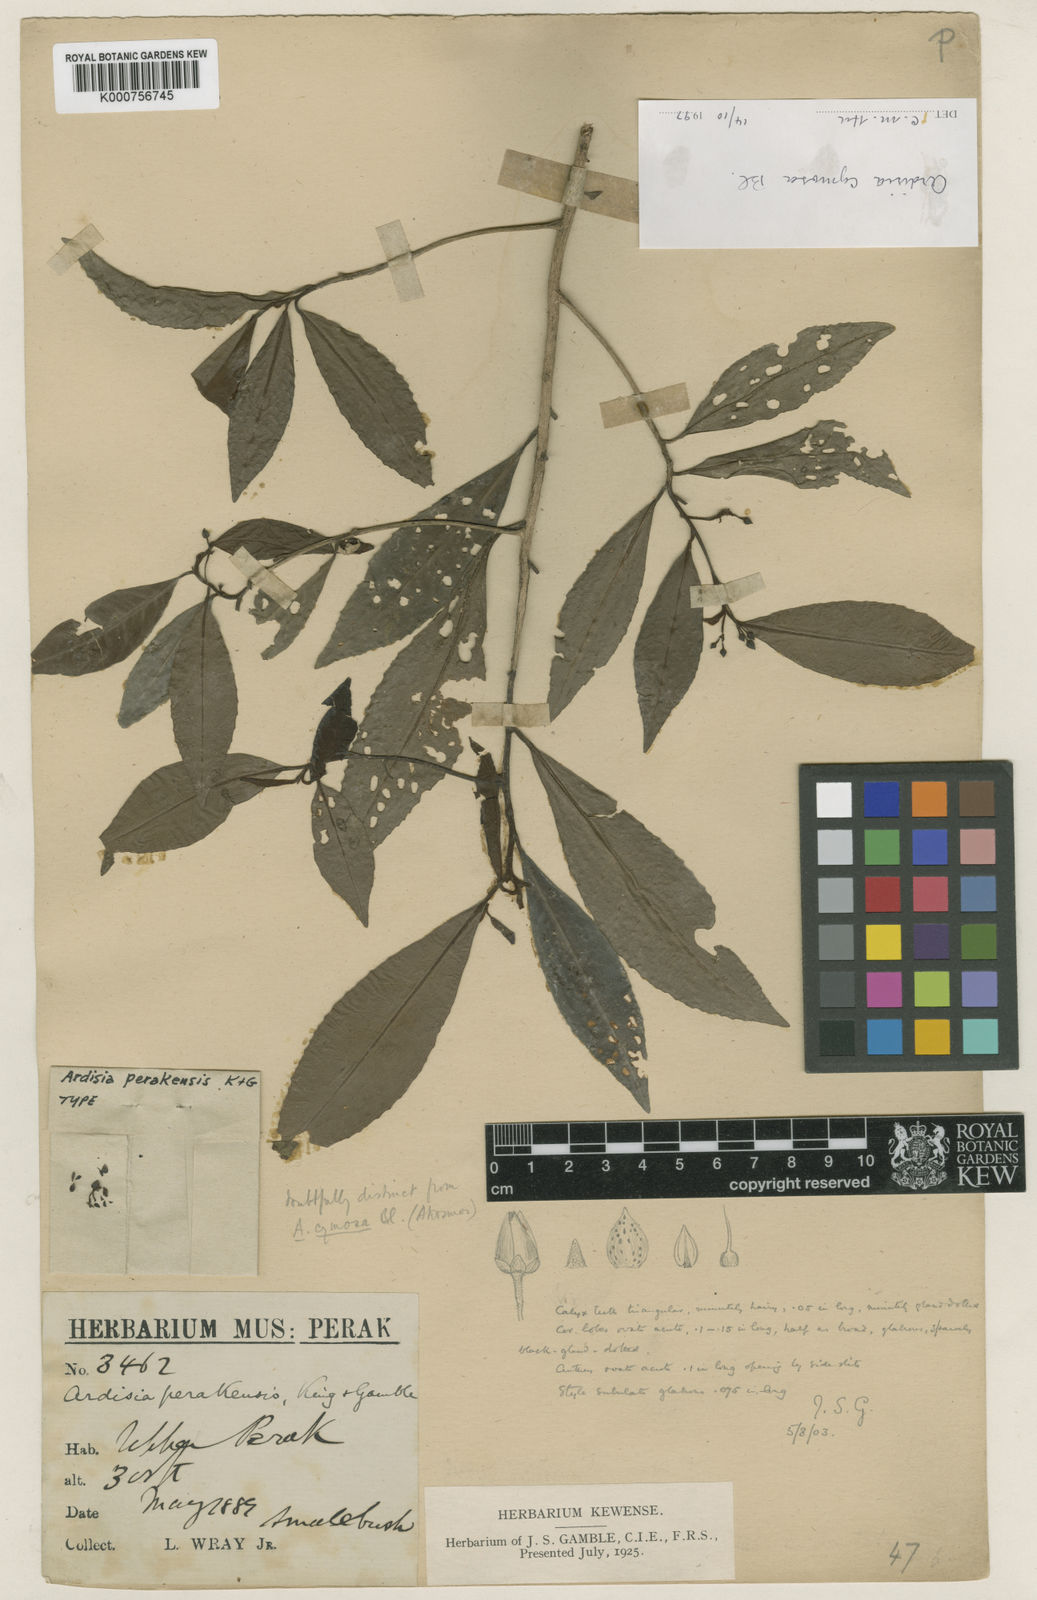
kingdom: Plantae
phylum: Tracheophyta
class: Magnoliopsida
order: Ericales
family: Primulaceae
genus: Ardisia
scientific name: Ardisia cymosa
